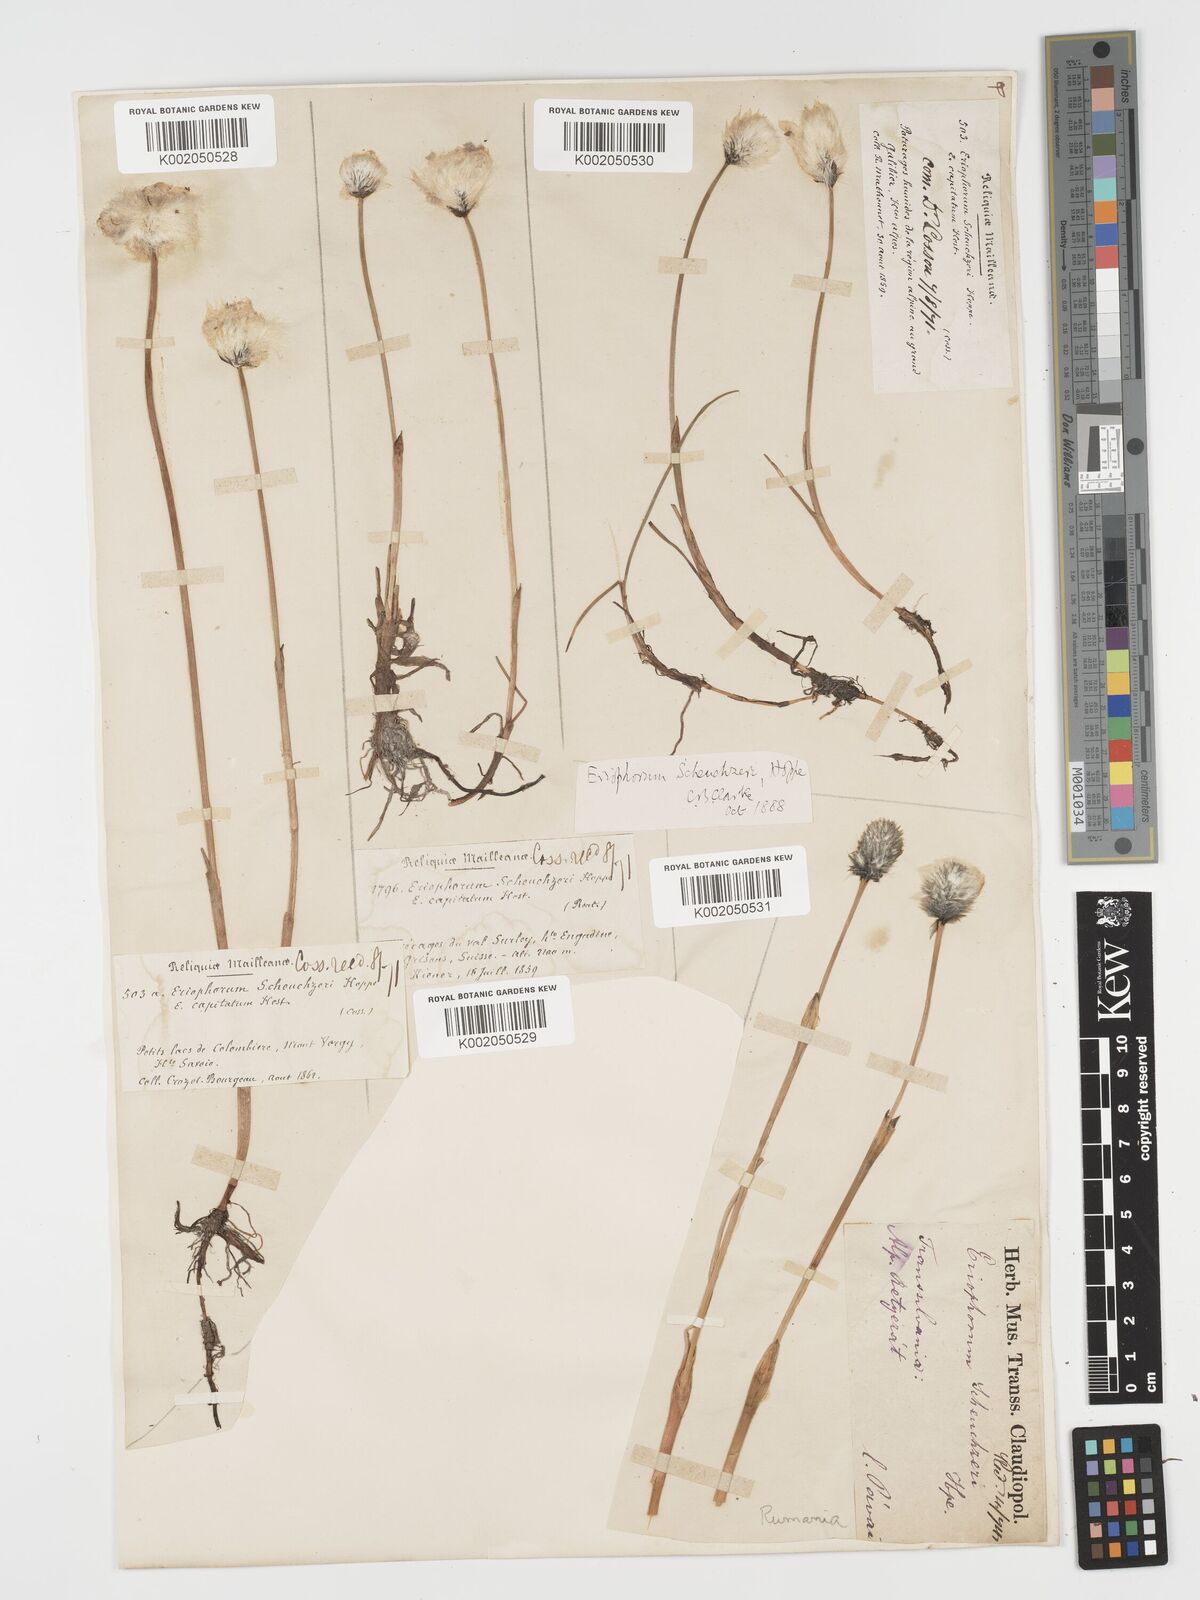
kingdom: Plantae
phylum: Tracheophyta
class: Liliopsida
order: Poales
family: Cyperaceae
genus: Eriophorum
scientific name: Eriophorum scheuchzeri
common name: Scheuchzer's cottongrass
